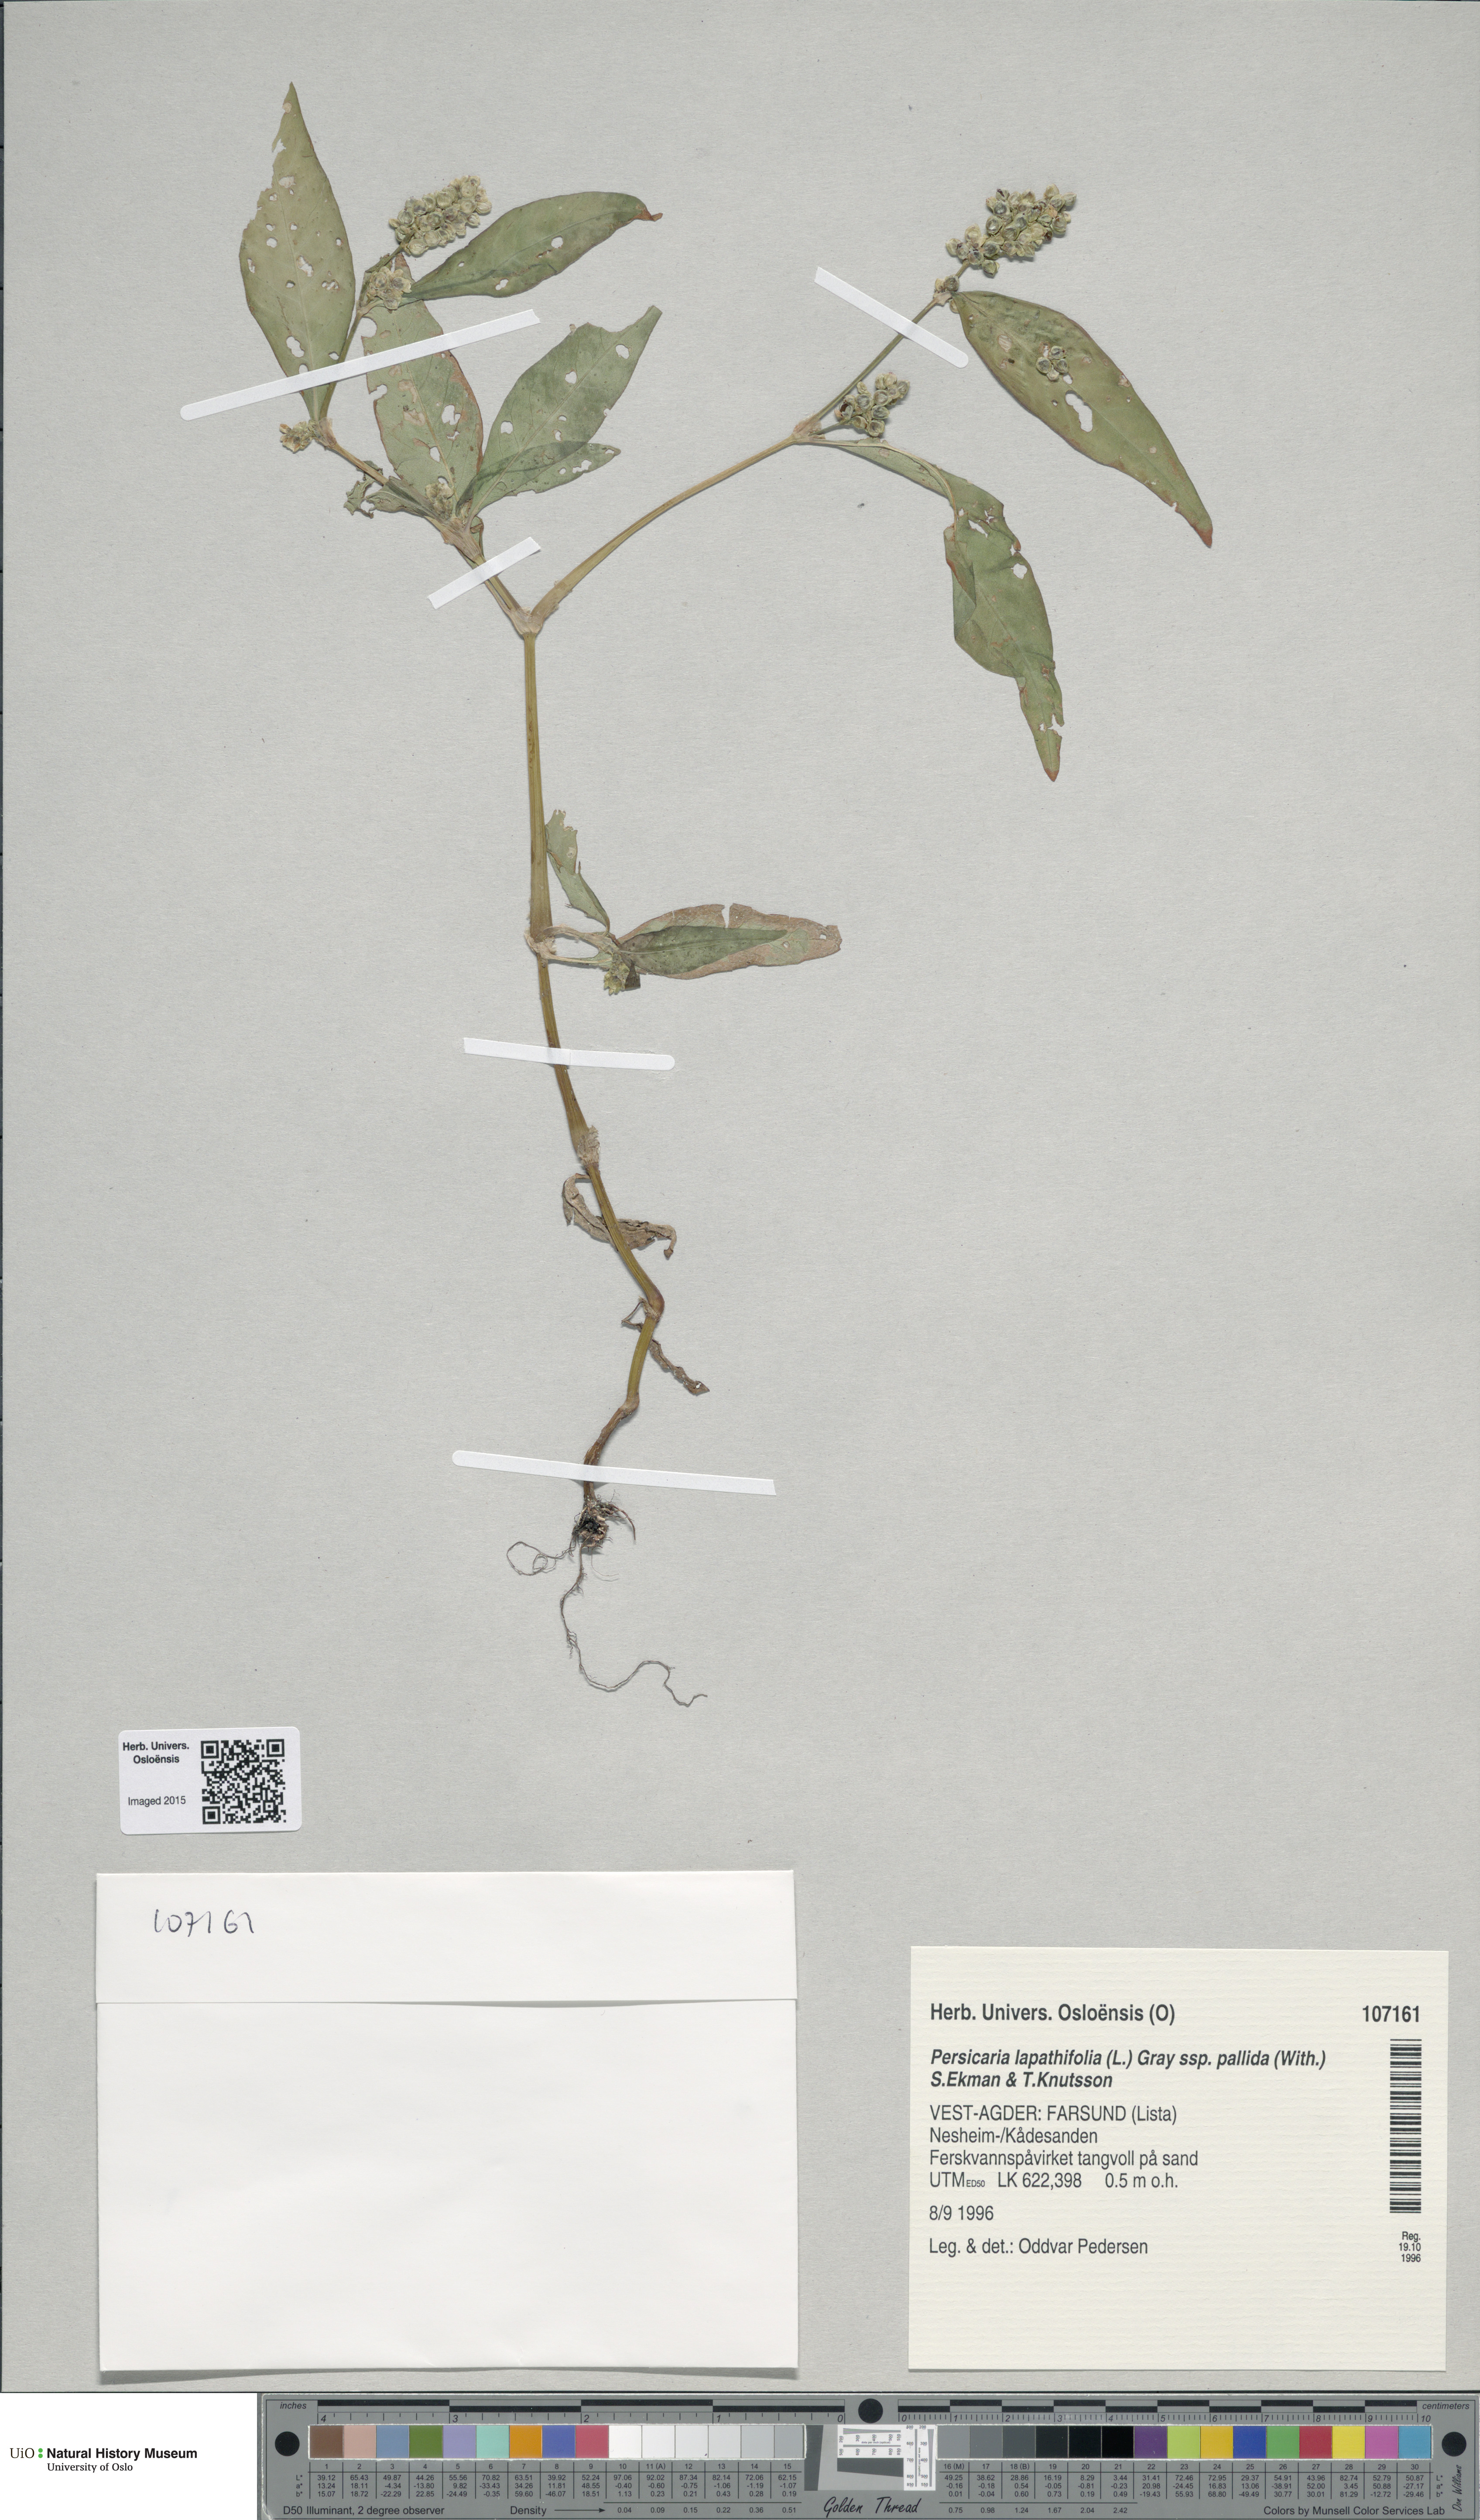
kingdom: Plantae
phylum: Tracheophyta
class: Magnoliopsida
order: Caryophyllales
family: Polygonaceae
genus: Persicaria
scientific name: Persicaria lapathifolia
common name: Curlytop knotweed
